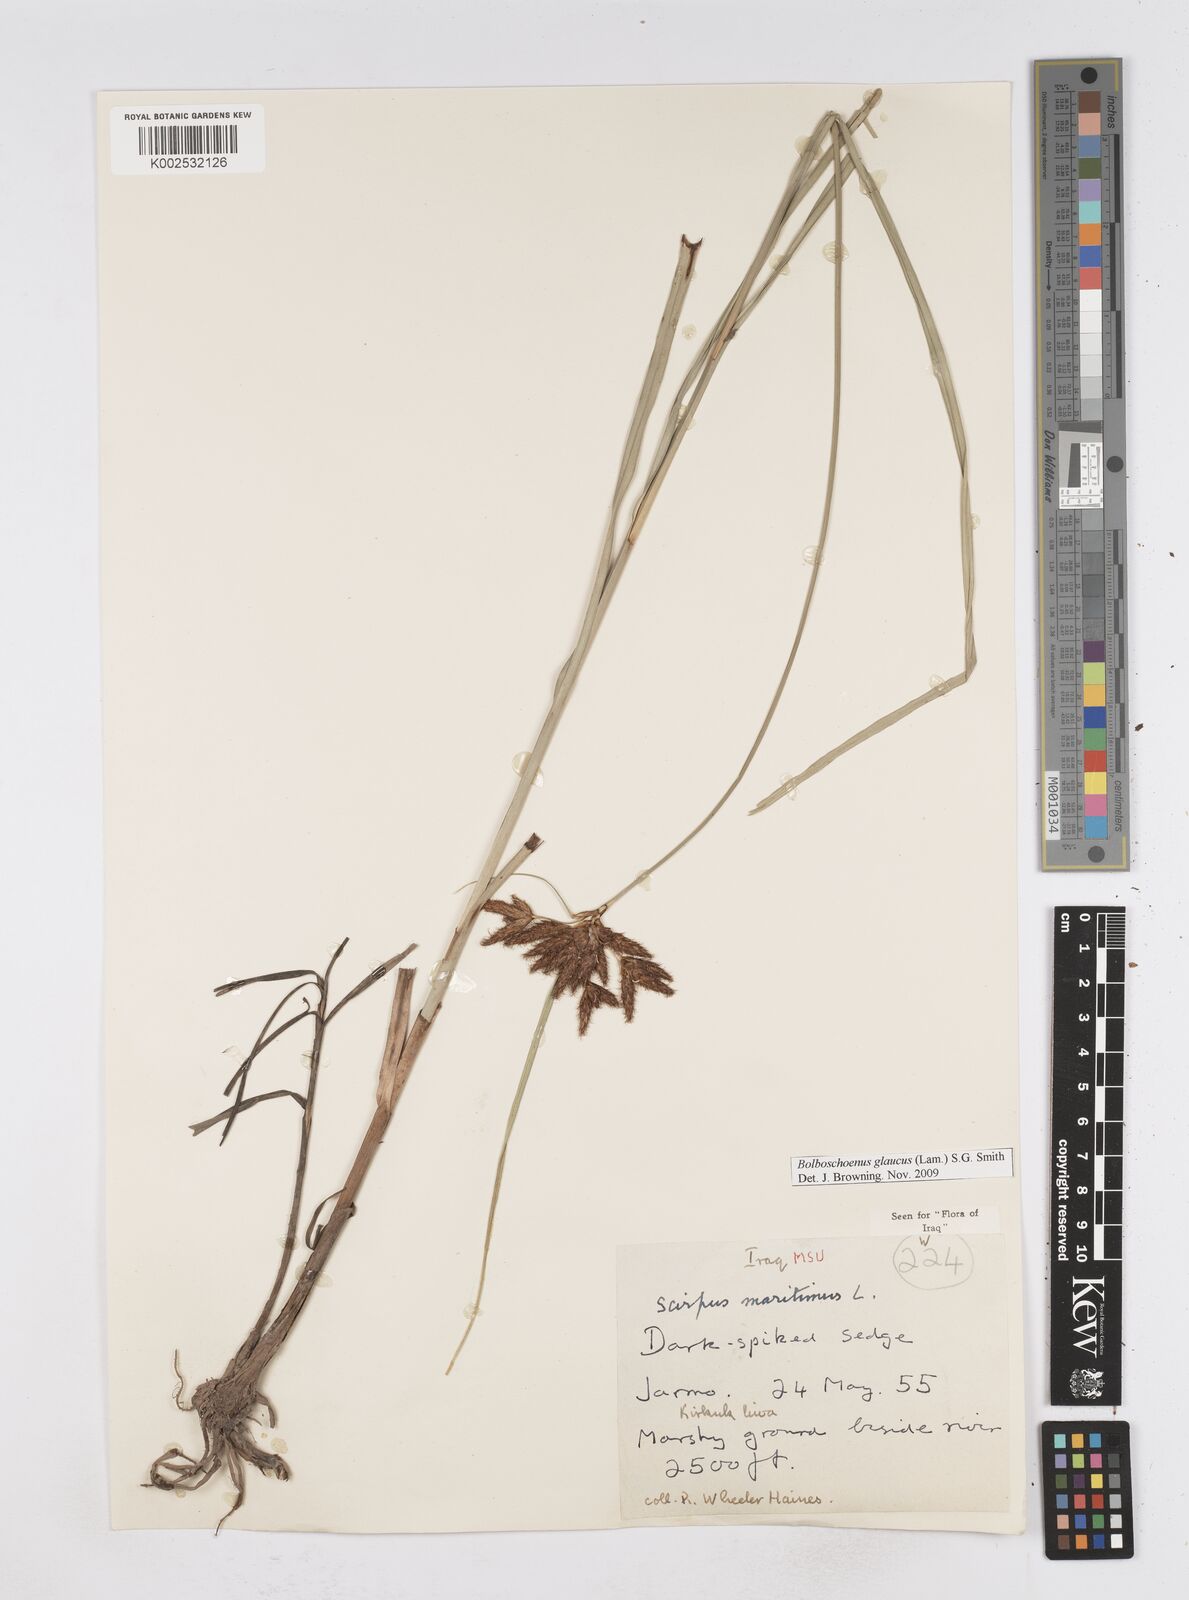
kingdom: Plantae
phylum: Tracheophyta
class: Liliopsida
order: Poales
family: Cyperaceae
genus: Bolboschoenus
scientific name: Bolboschoenus maritimus
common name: Sea club-rush
